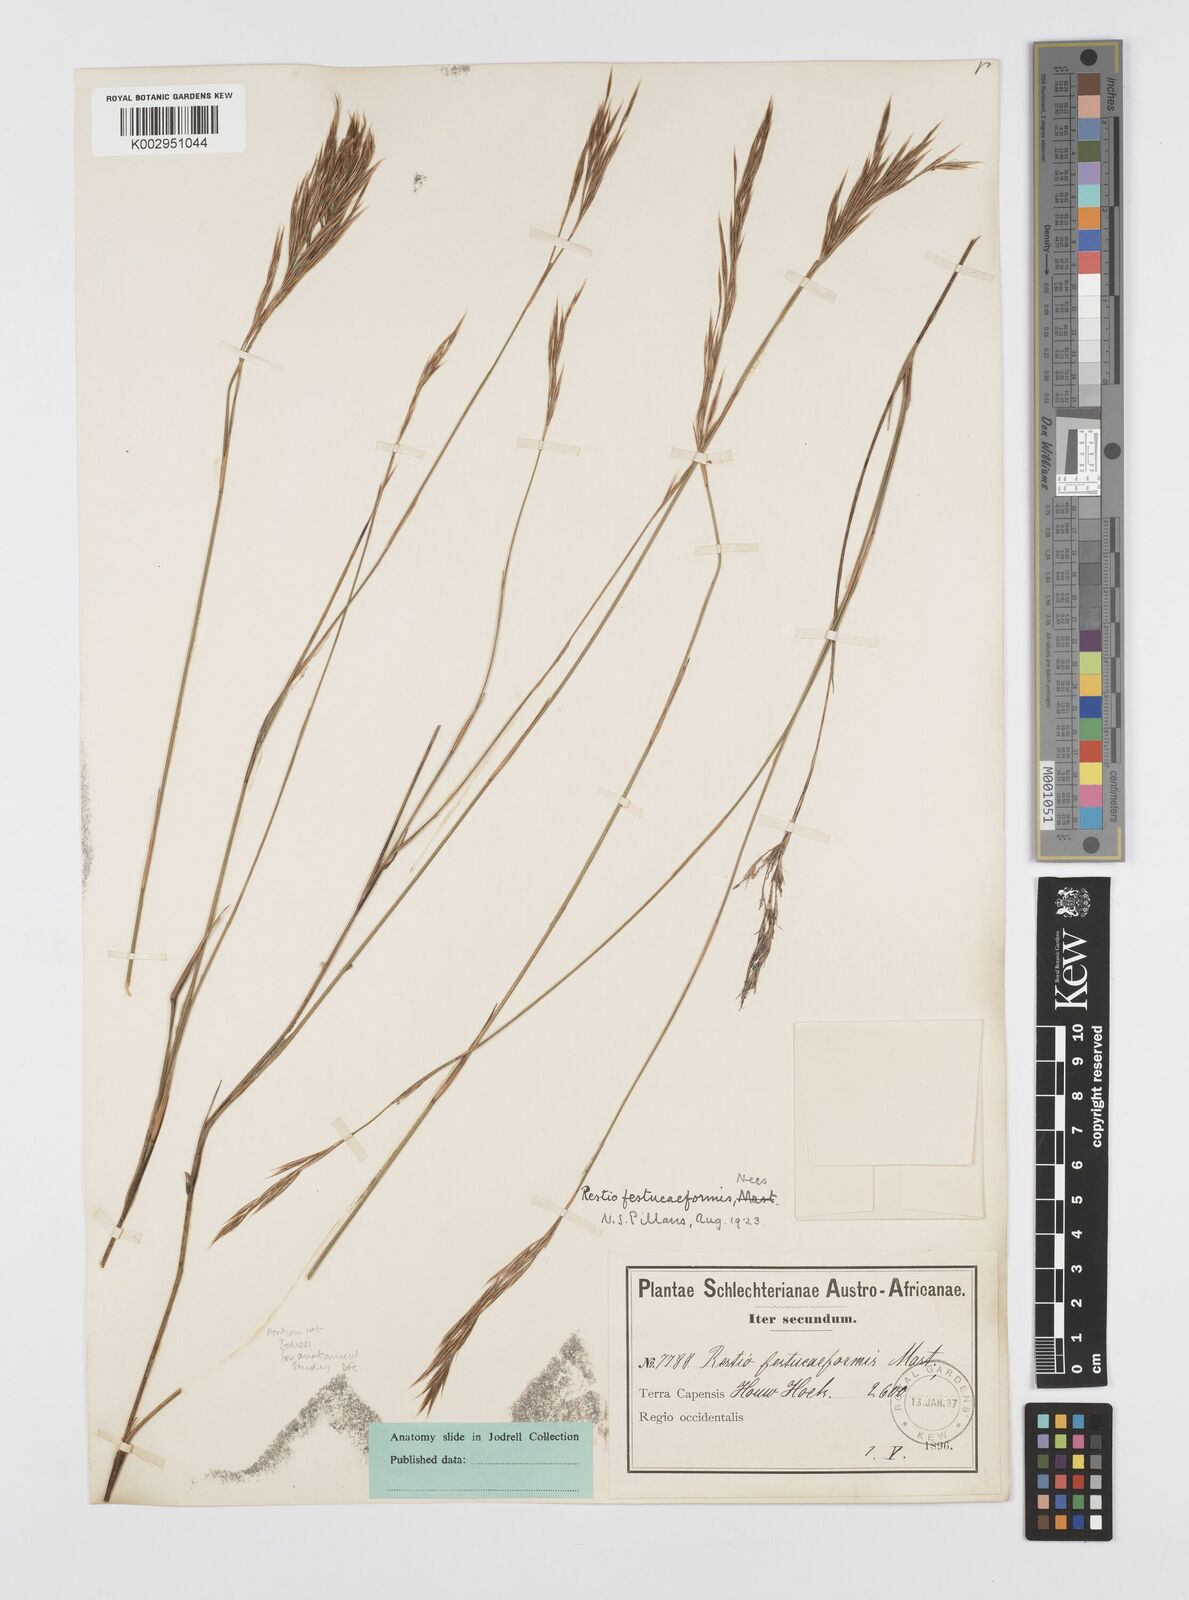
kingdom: Plantae
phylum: Tracheophyta
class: Liliopsida
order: Poales
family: Restionaceae
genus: Restio
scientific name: Restio festuciformis
